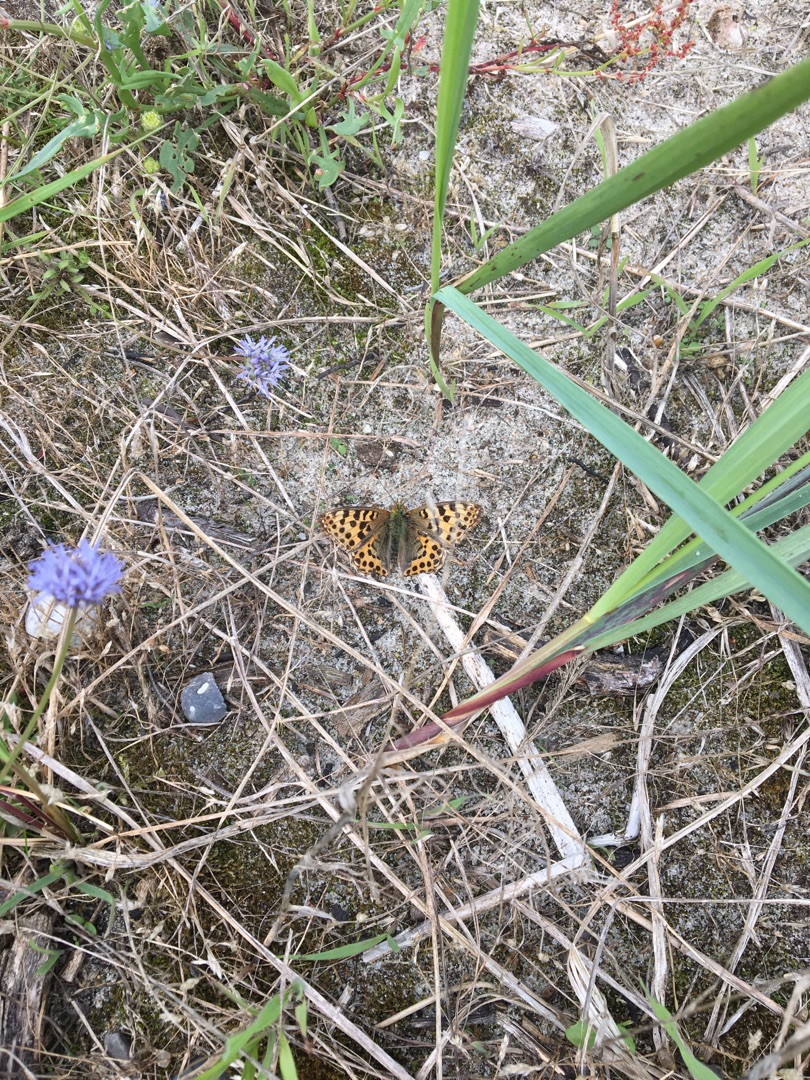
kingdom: Animalia
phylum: Arthropoda
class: Insecta
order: Lepidoptera
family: Nymphalidae
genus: Issoria
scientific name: Issoria lathonia
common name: Storplettet perlemorsommerfugl
